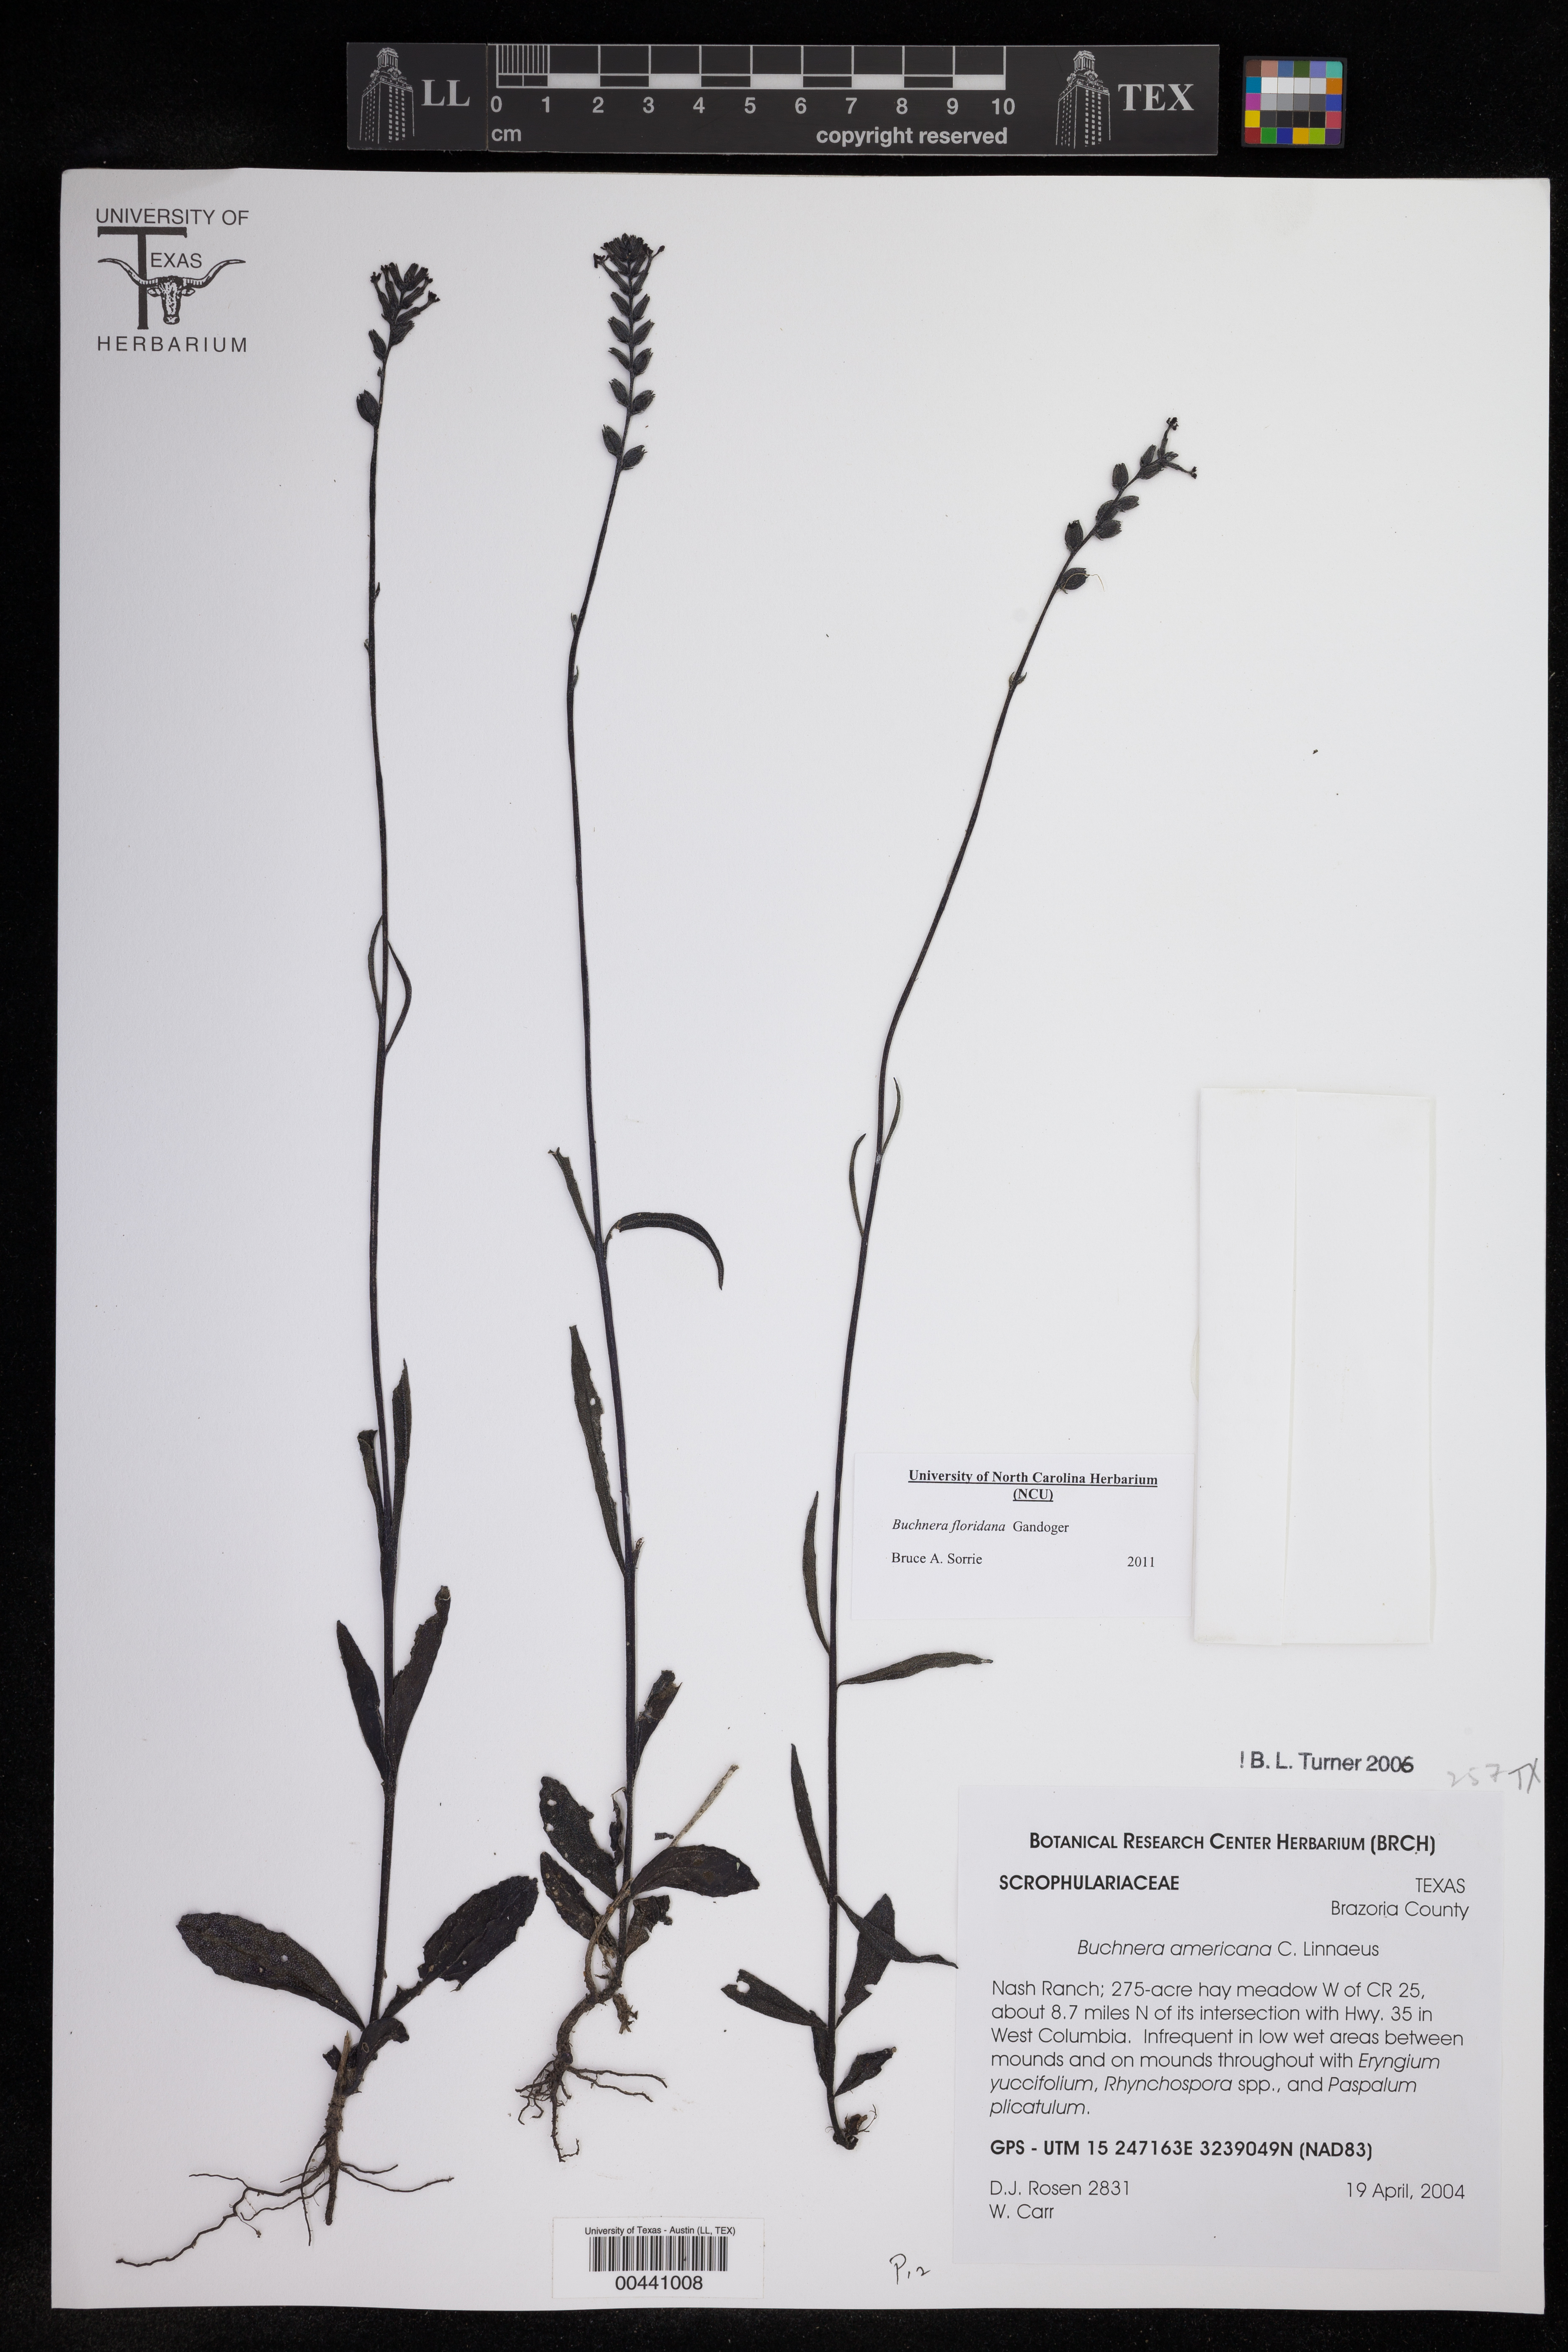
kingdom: Plantae
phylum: Tracheophyta
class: Magnoliopsida
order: Lamiales
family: Orobanchaceae
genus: Buchnera
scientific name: Buchnera floridana
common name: Florida bluehearts
